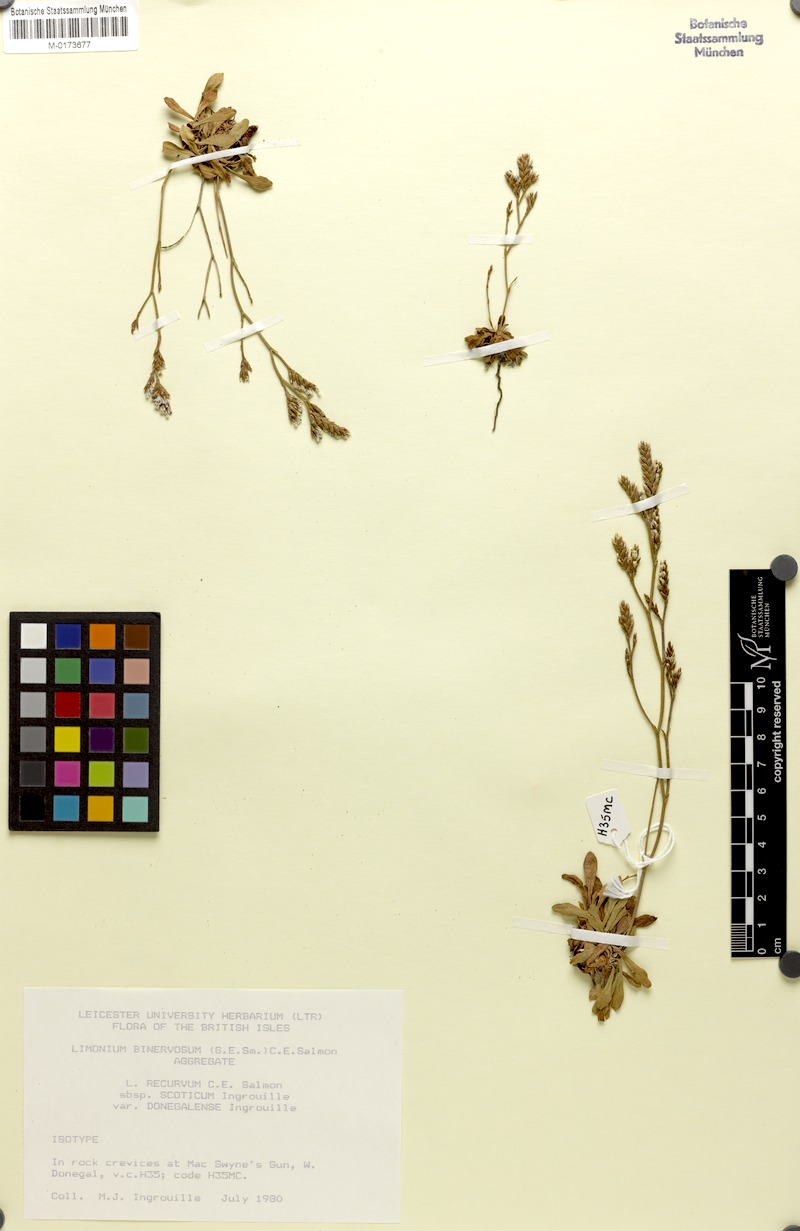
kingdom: Plantae
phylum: Tracheophyta
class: Magnoliopsida
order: Caryophyllales
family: Plumbaginaceae
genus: Limonium
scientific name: Limonium recurvum
